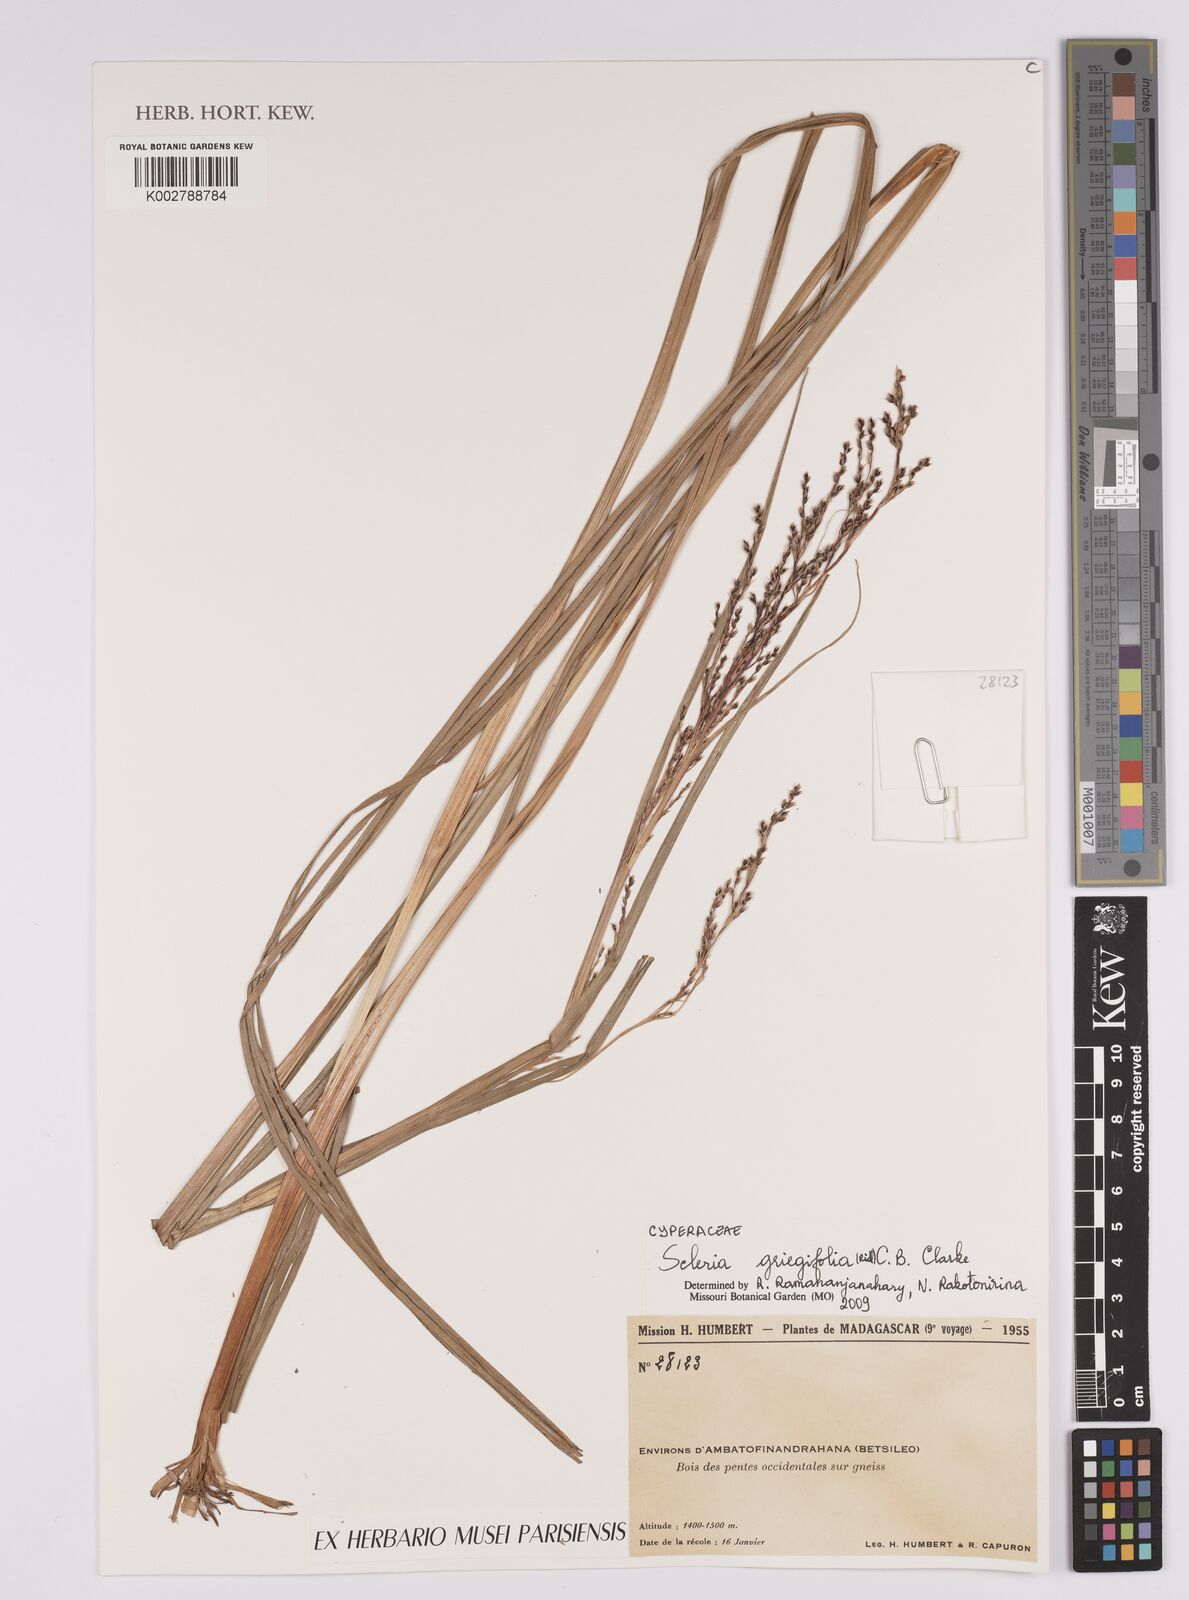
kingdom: Plantae
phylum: Tracheophyta
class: Liliopsida
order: Poales
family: Cyperaceae
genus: Scleria
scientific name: Scleria greigiifolia
